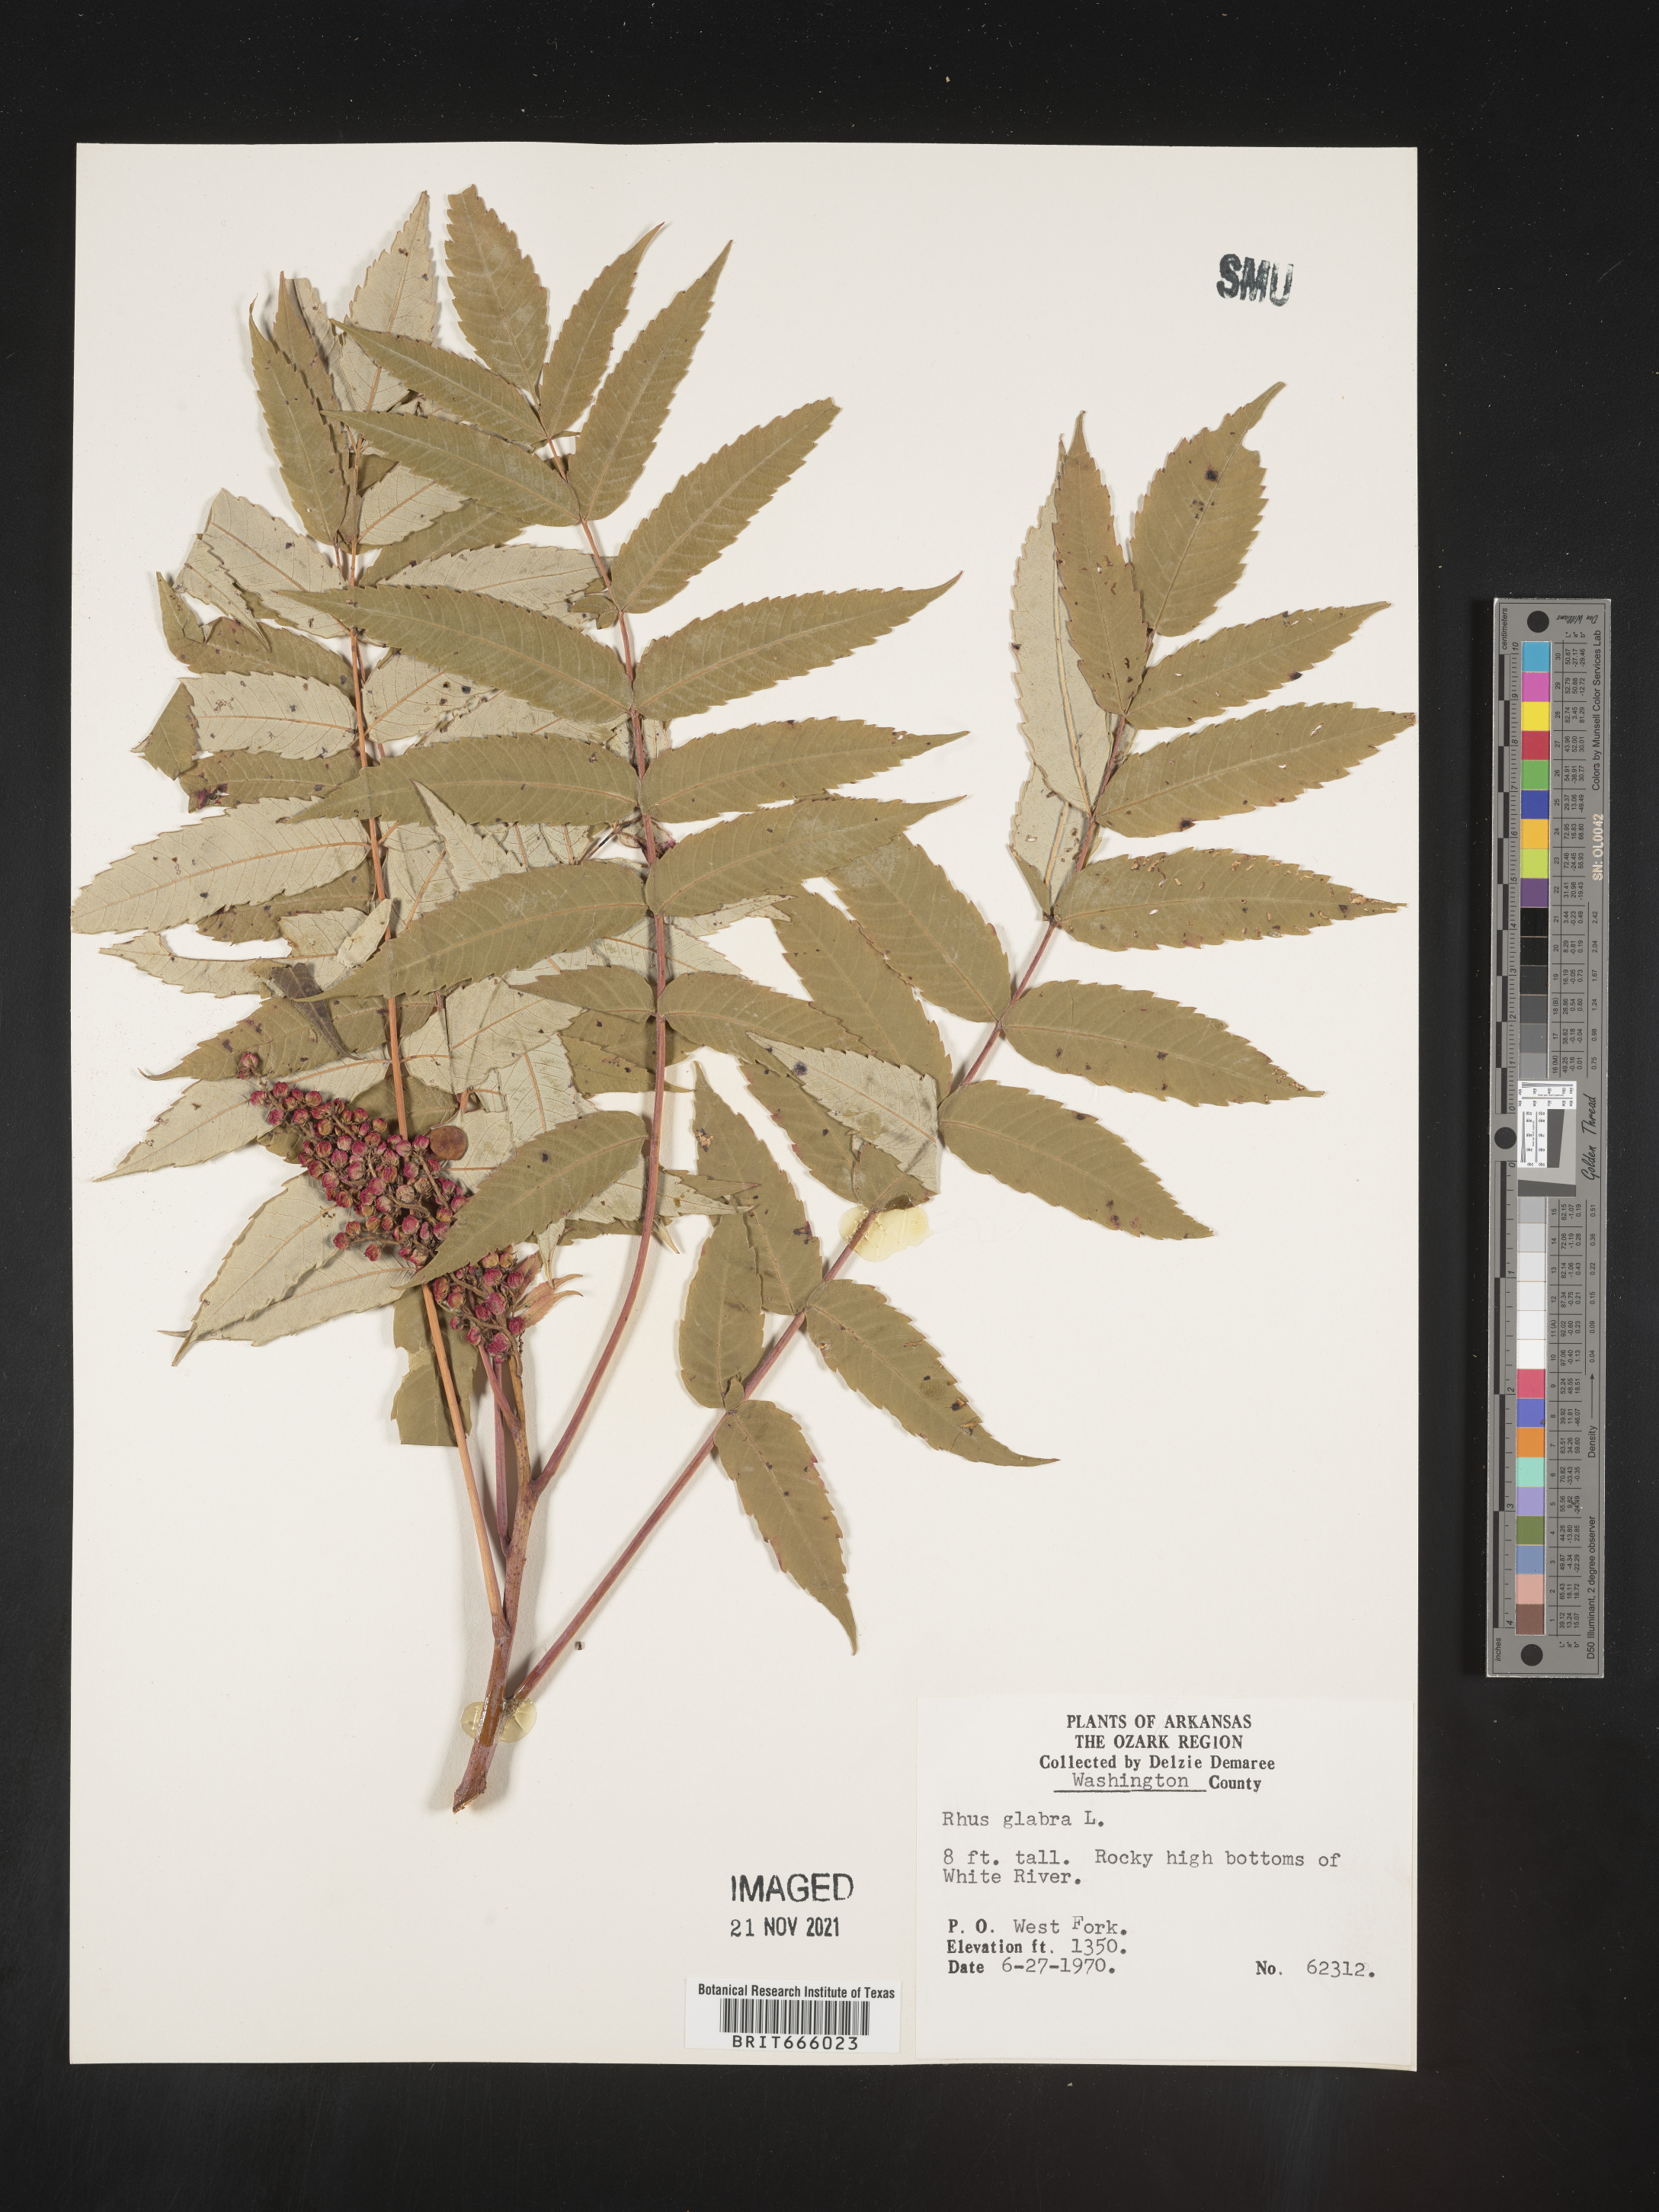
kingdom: Plantae
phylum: Tracheophyta
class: Magnoliopsida
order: Sapindales
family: Anacardiaceae
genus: Rhus
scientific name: Rhus glabra
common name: Scarlet sumac
